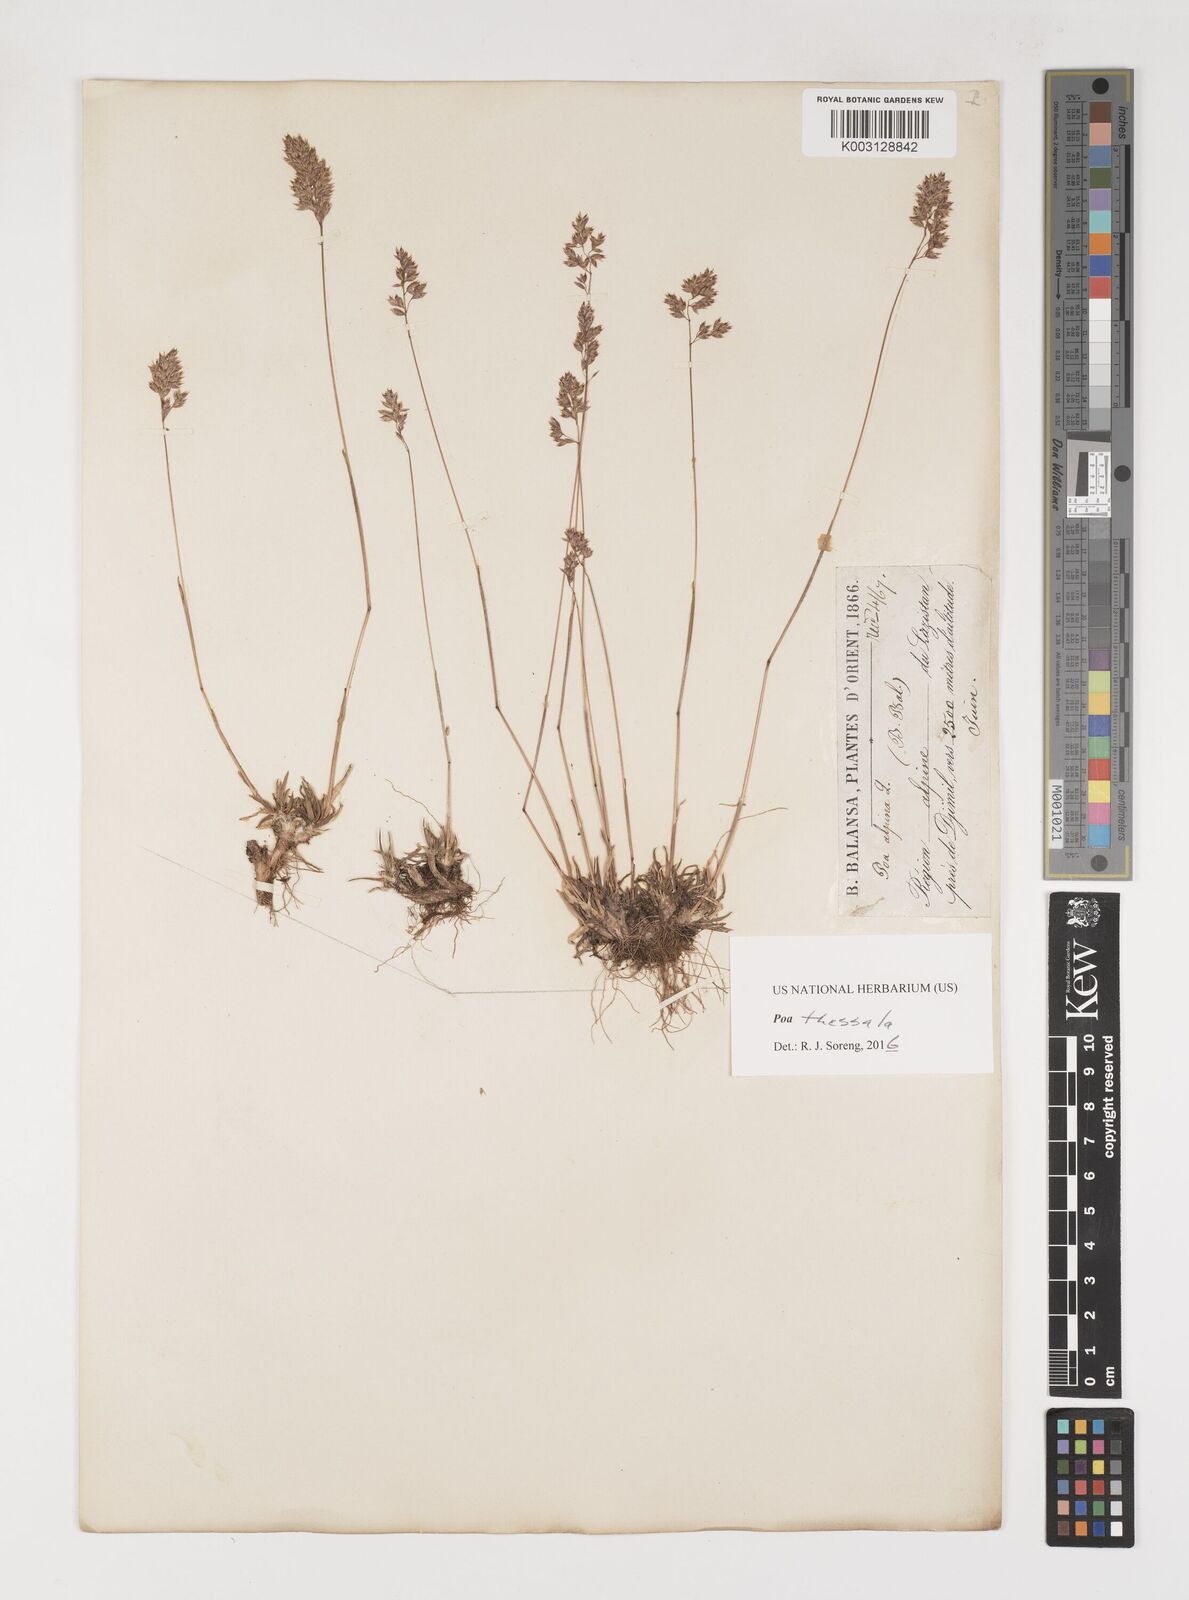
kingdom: Plantae
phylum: Tracheophyta
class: Liliopsida
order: Poales
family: Poaceae
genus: Poa
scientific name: Poa thessala
